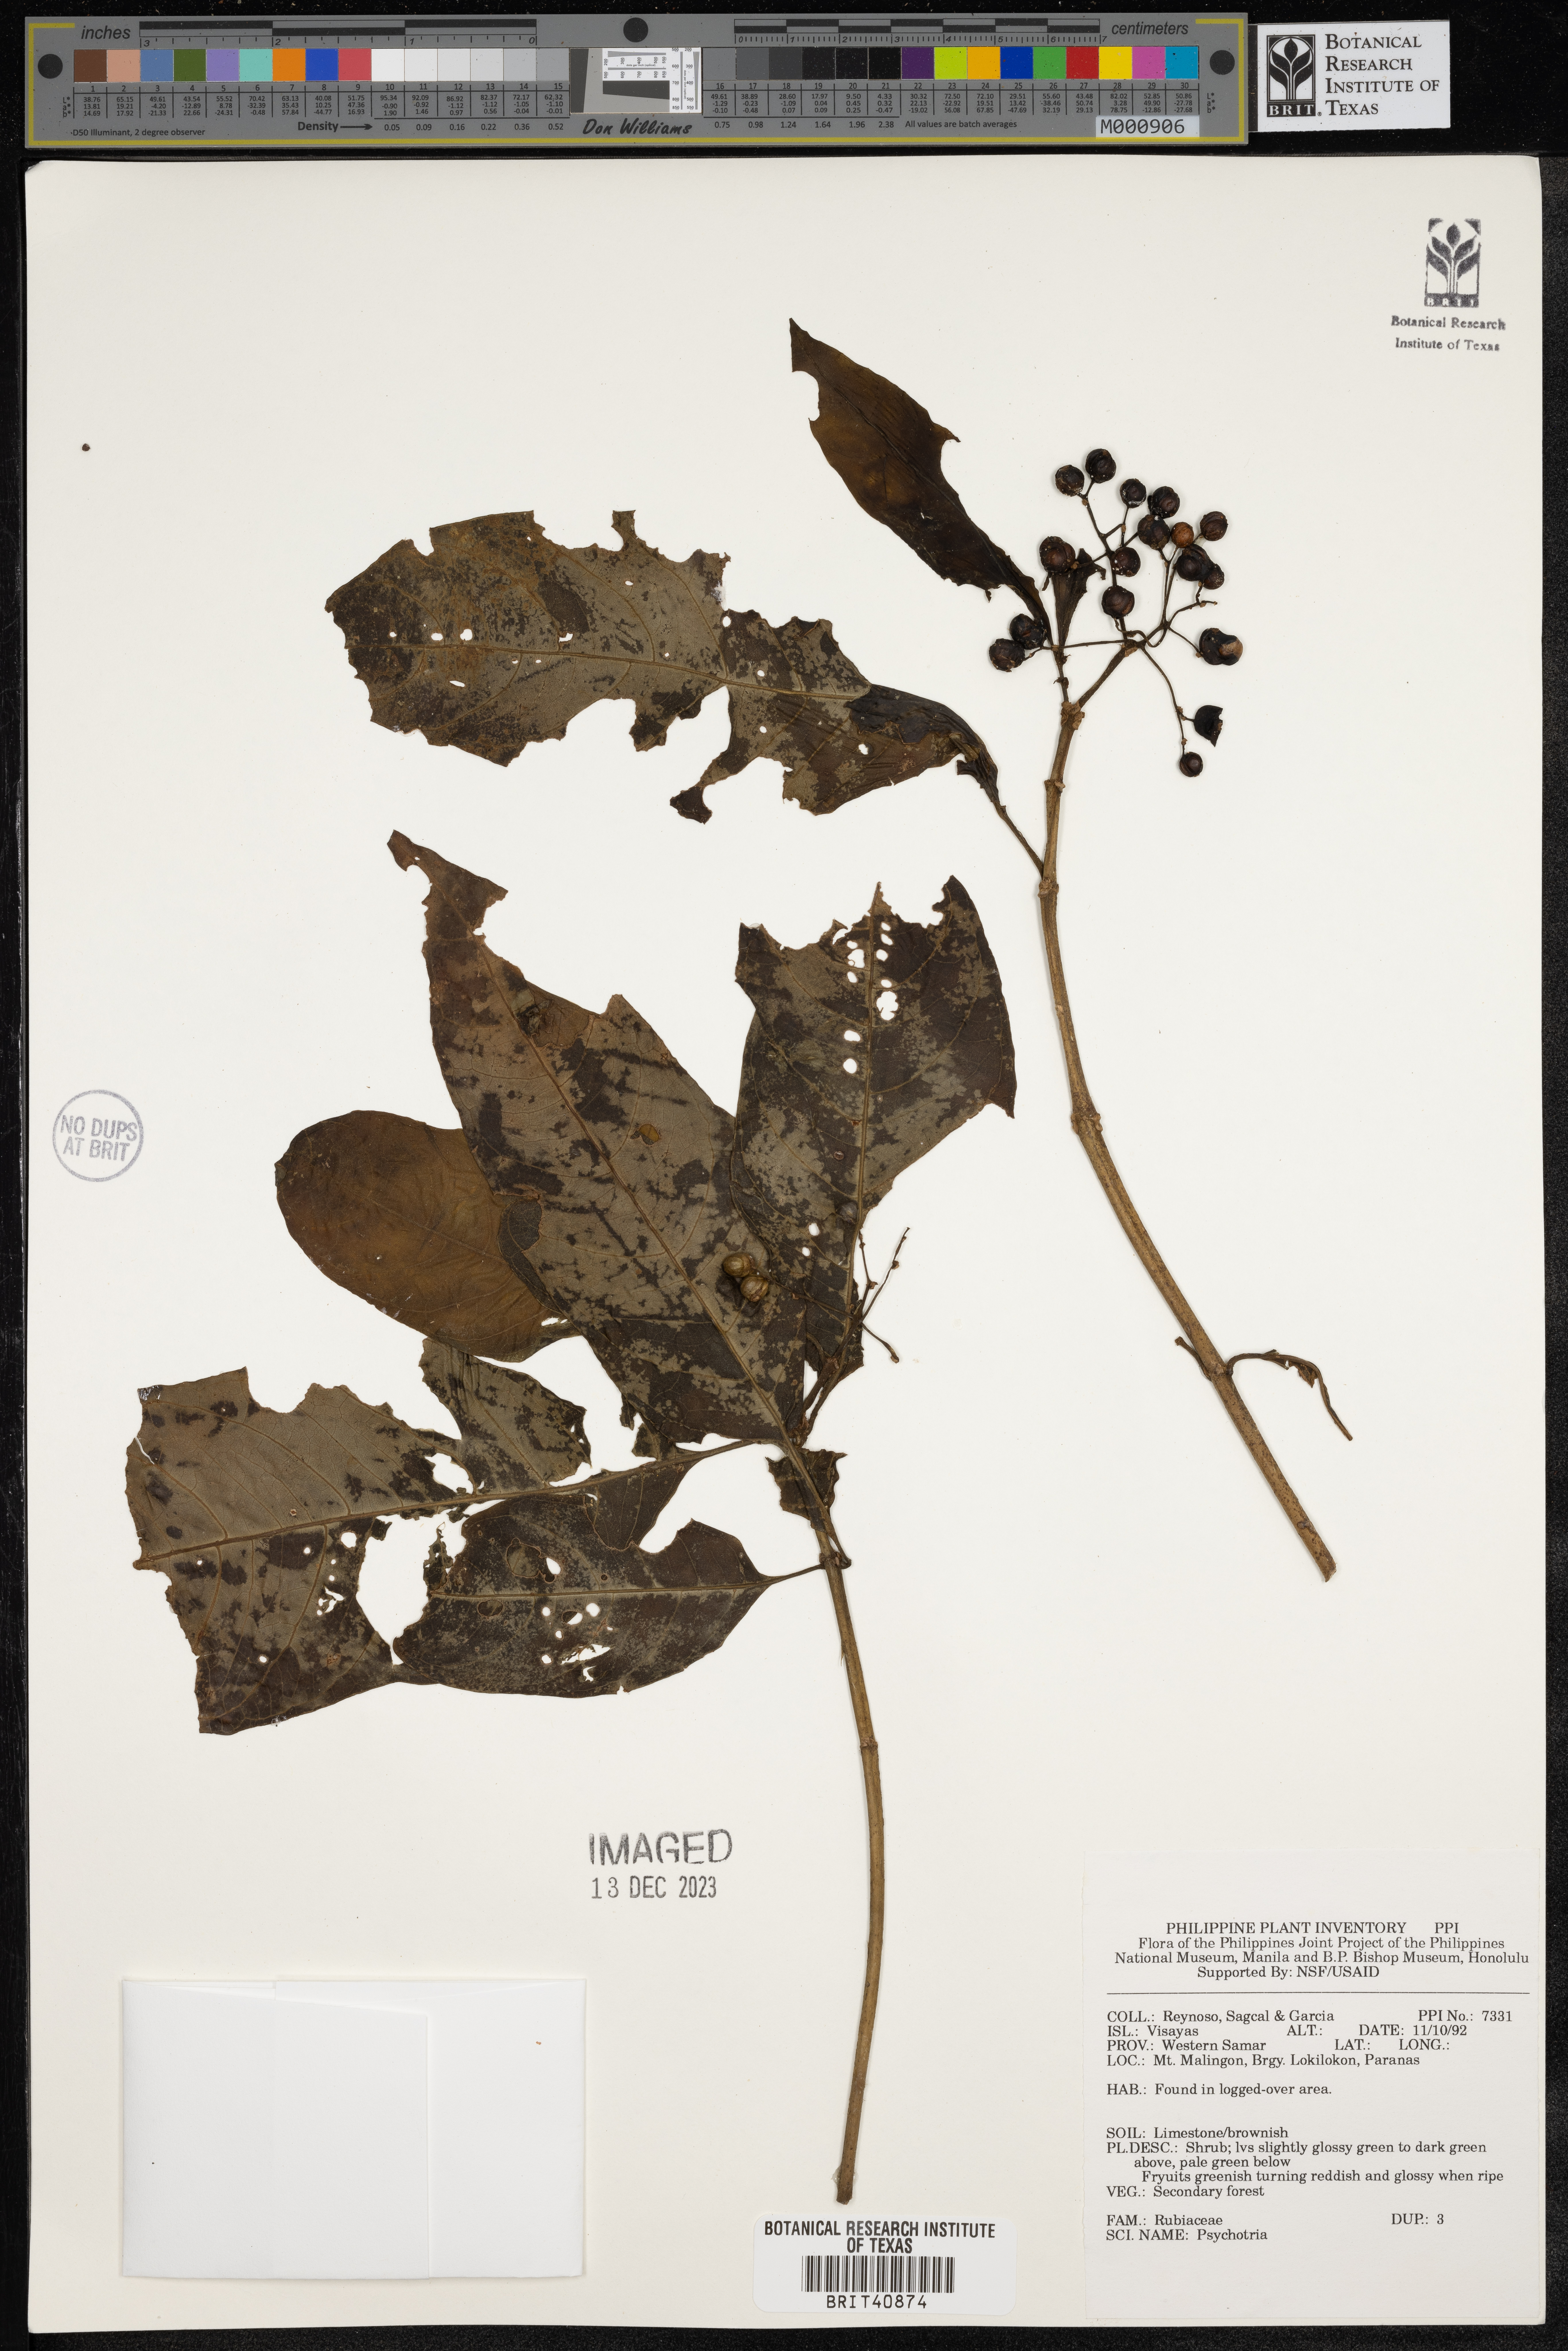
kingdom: Plantae
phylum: Tracheophyta
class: Magnoliopsida
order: Gentianales
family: Rubiaceae
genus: Psychotria
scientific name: Psychotria
